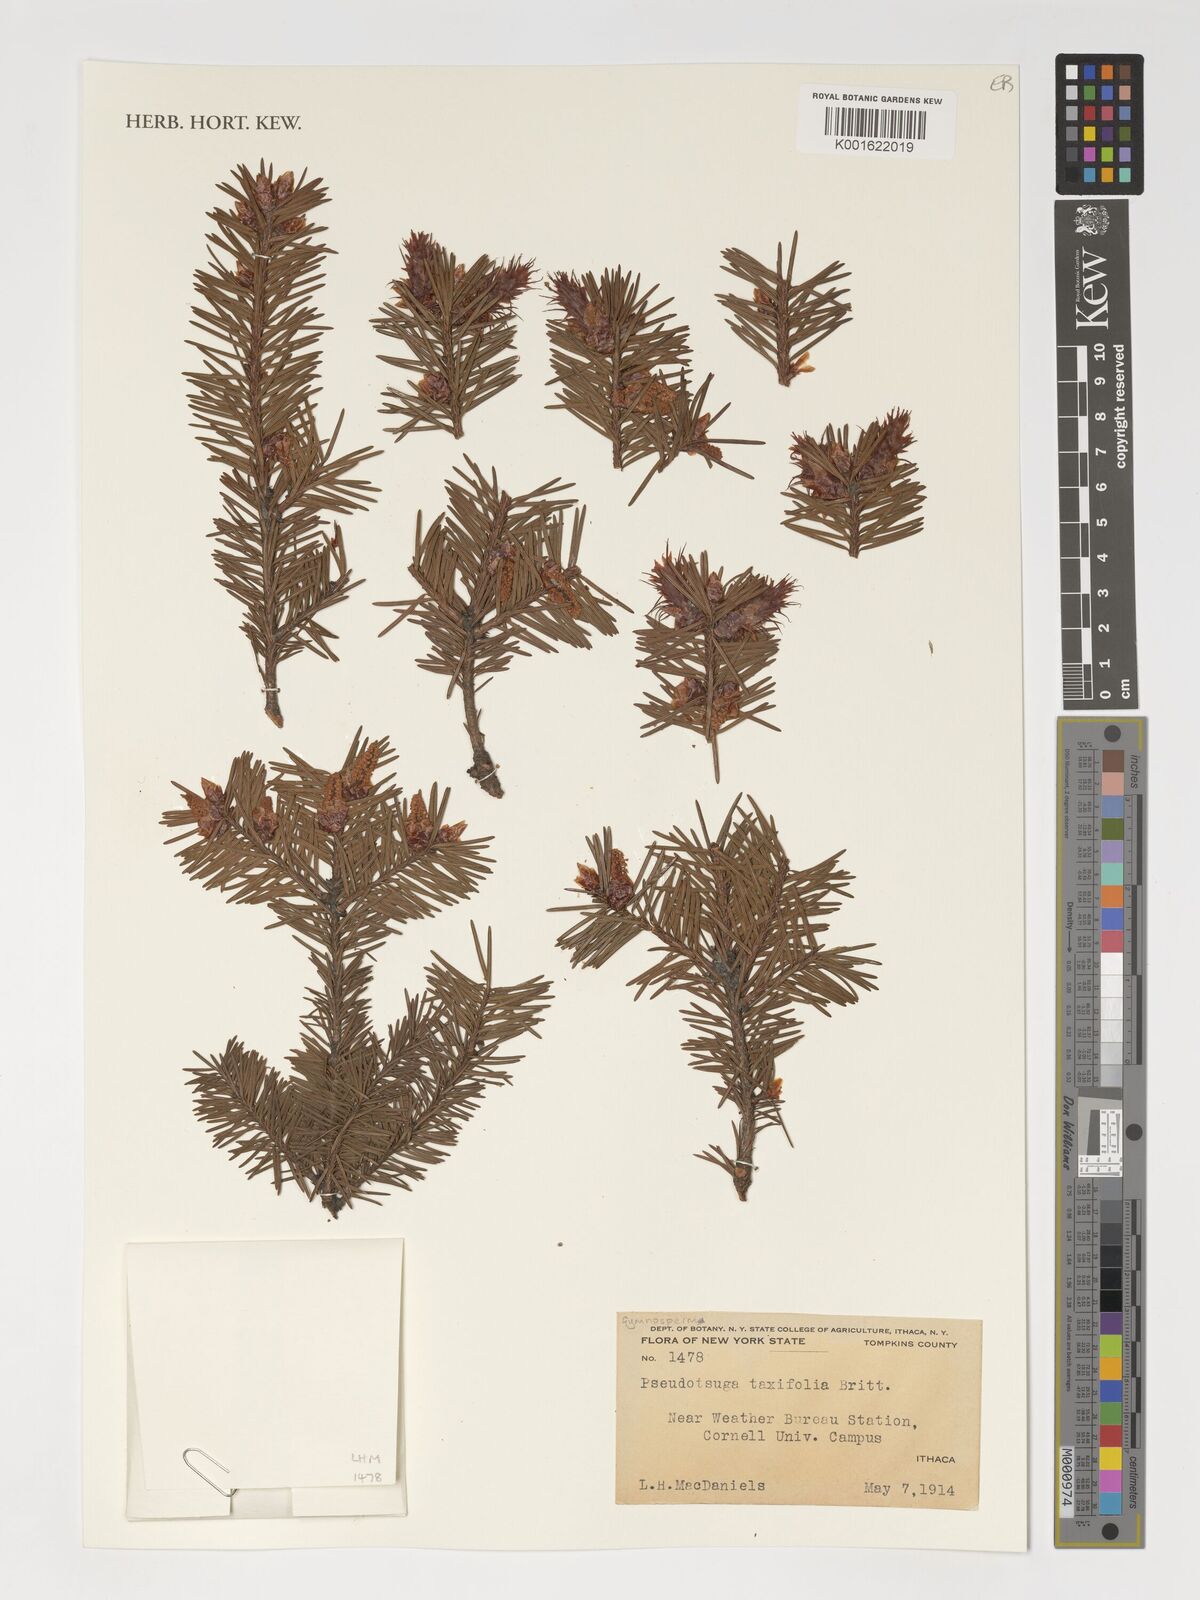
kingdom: Plantae
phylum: Tracheophyta
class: Pinopsida
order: Pinales
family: Pinaceae
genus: Pseudotsuga
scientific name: Pseudotsuga menziesii
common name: Douglas fir
